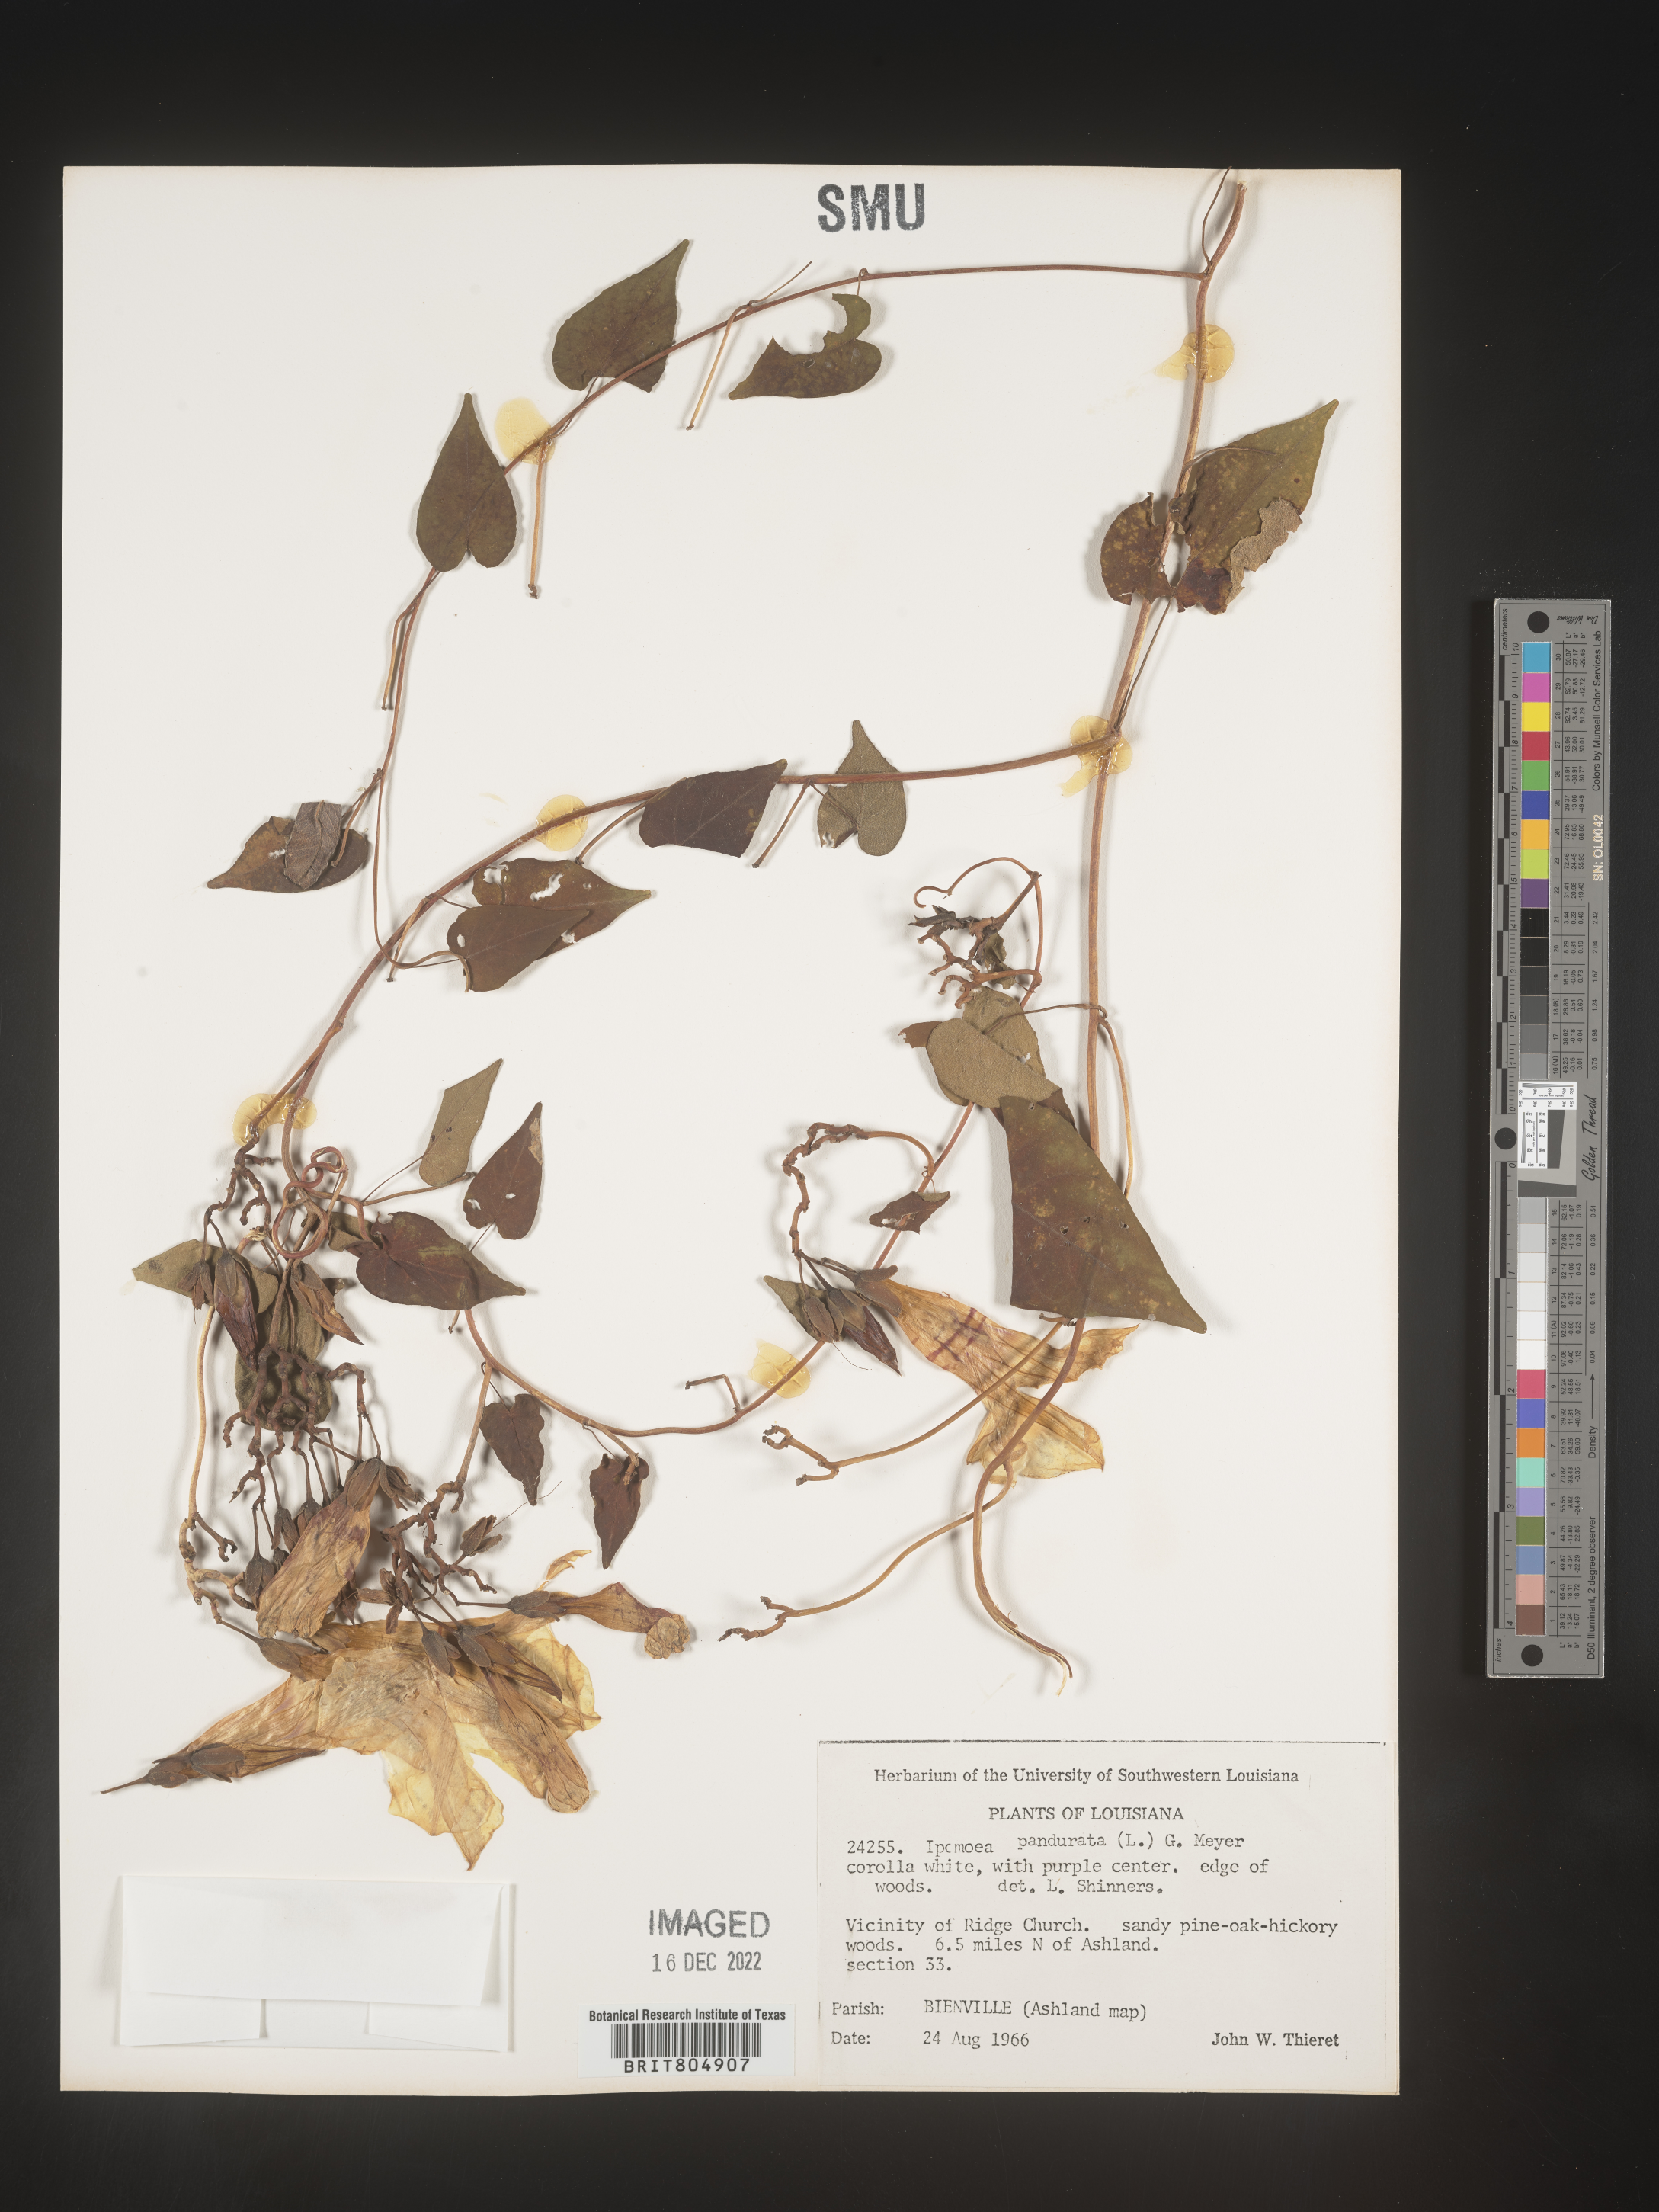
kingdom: Plantae
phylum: Tracheophyta
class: Magnoliopsida
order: Solanales
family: Convolvulaceae
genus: Ipomoea
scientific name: Ipomoea pandurata
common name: Man-of-the-earth
